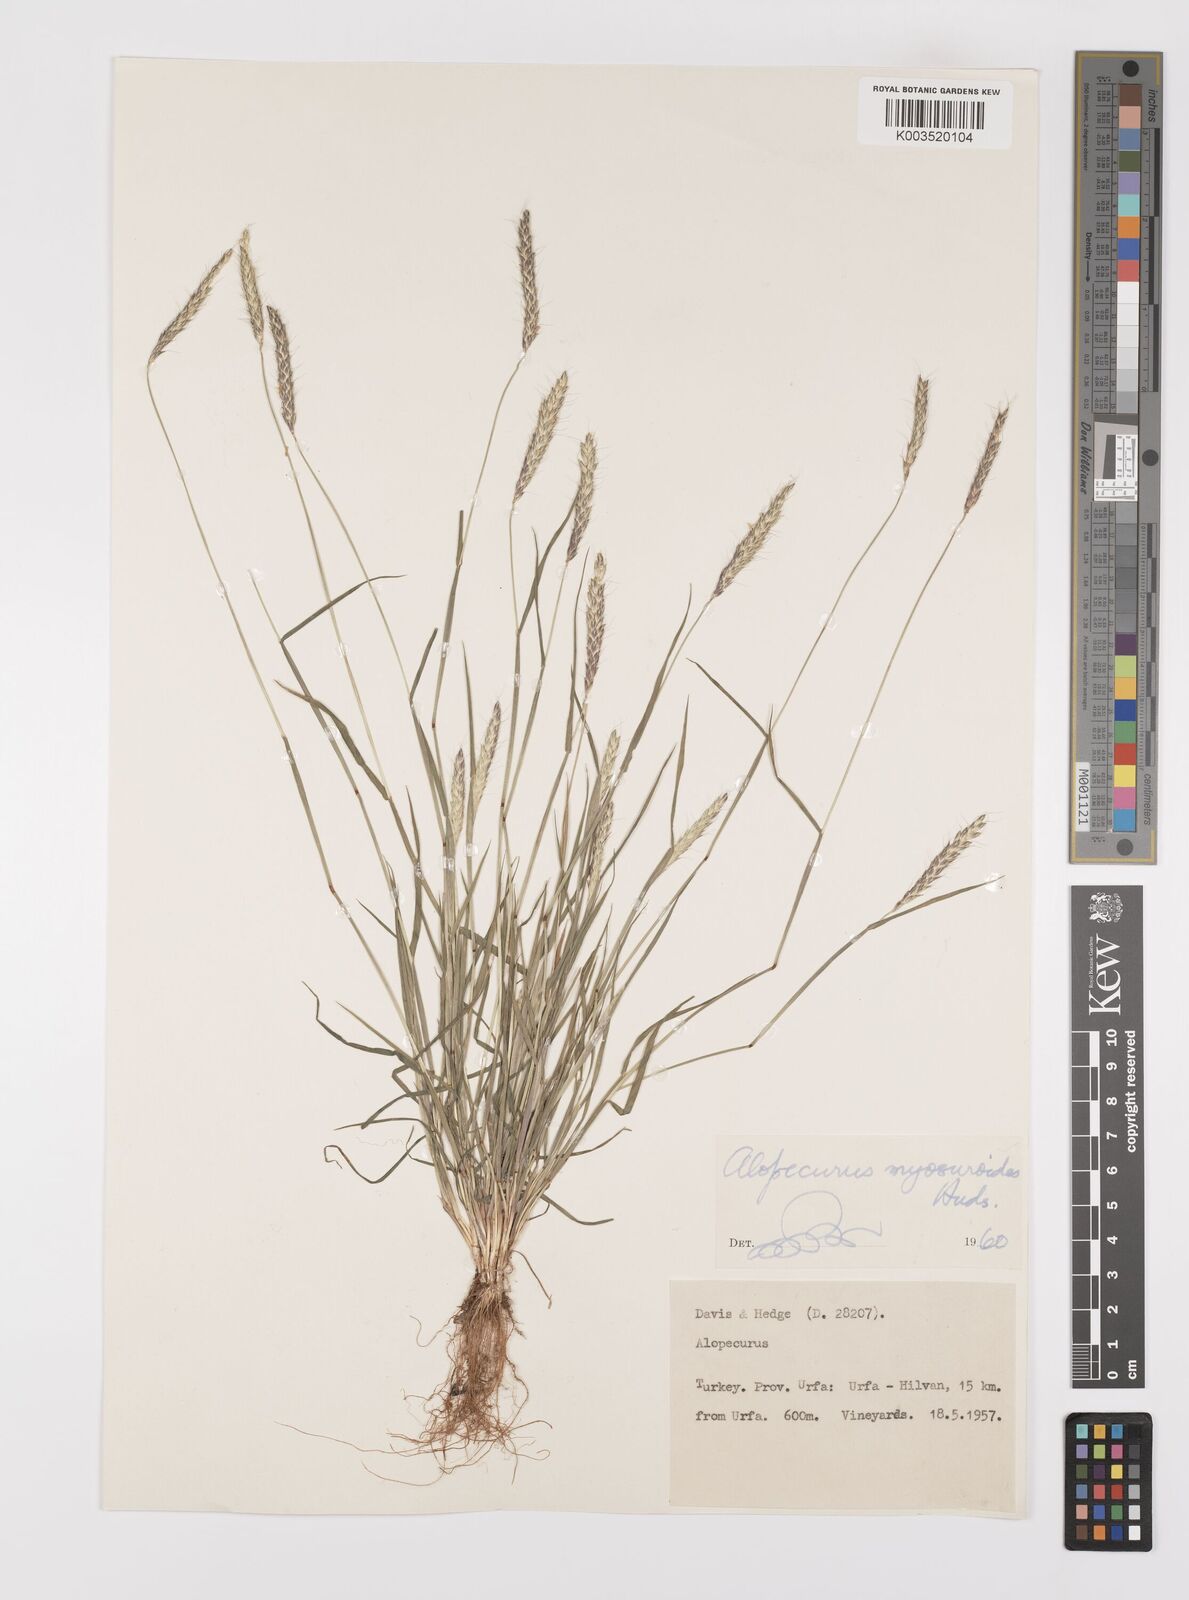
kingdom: Plantae
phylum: Tracheophyta
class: Liliopsida
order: Poales
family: Poaceae
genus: Alopecurus
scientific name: Alopecurus myosuroides
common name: Black-grass
